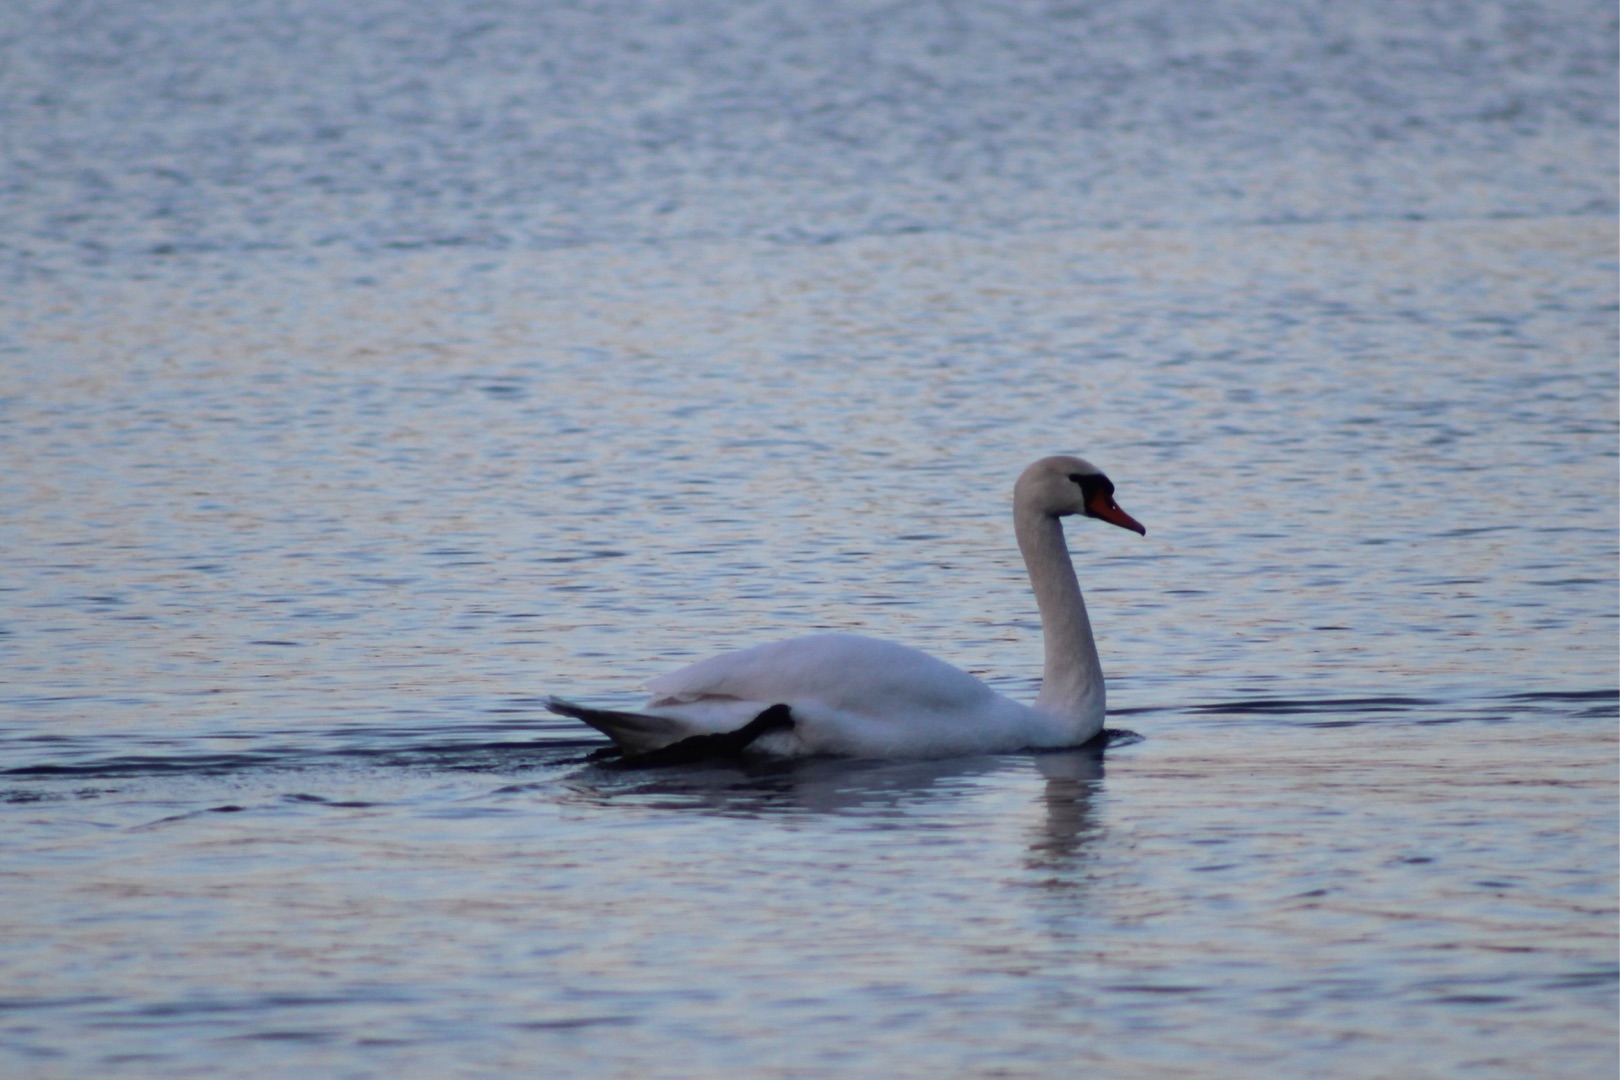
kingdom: Animalia
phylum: Chordata
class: Aves
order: Anseriformes
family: Anatidae
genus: Cygnus
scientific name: Cygnus olor
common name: Knopsvane
